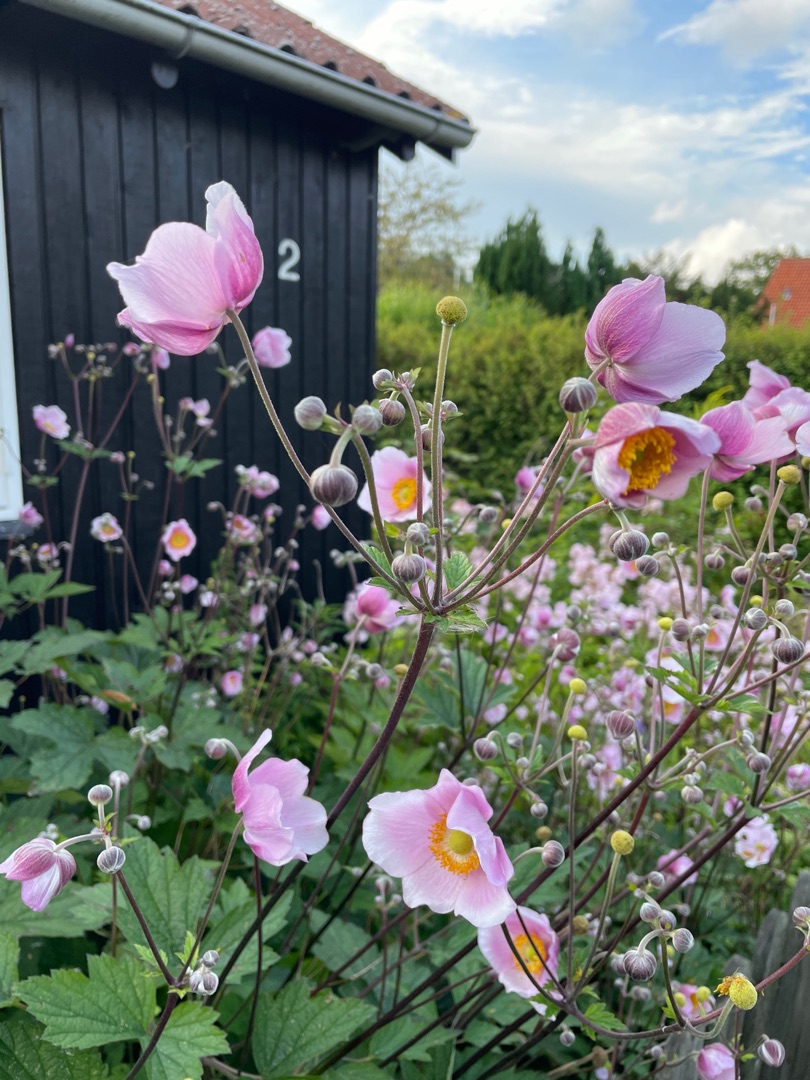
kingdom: Plantae
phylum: Tracheophyta
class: Magnoliopsida
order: Ranunculales
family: Ranunculaceae
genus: Eriocapitella
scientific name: Eriocapitella hupehensis
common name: Høst-anemone
